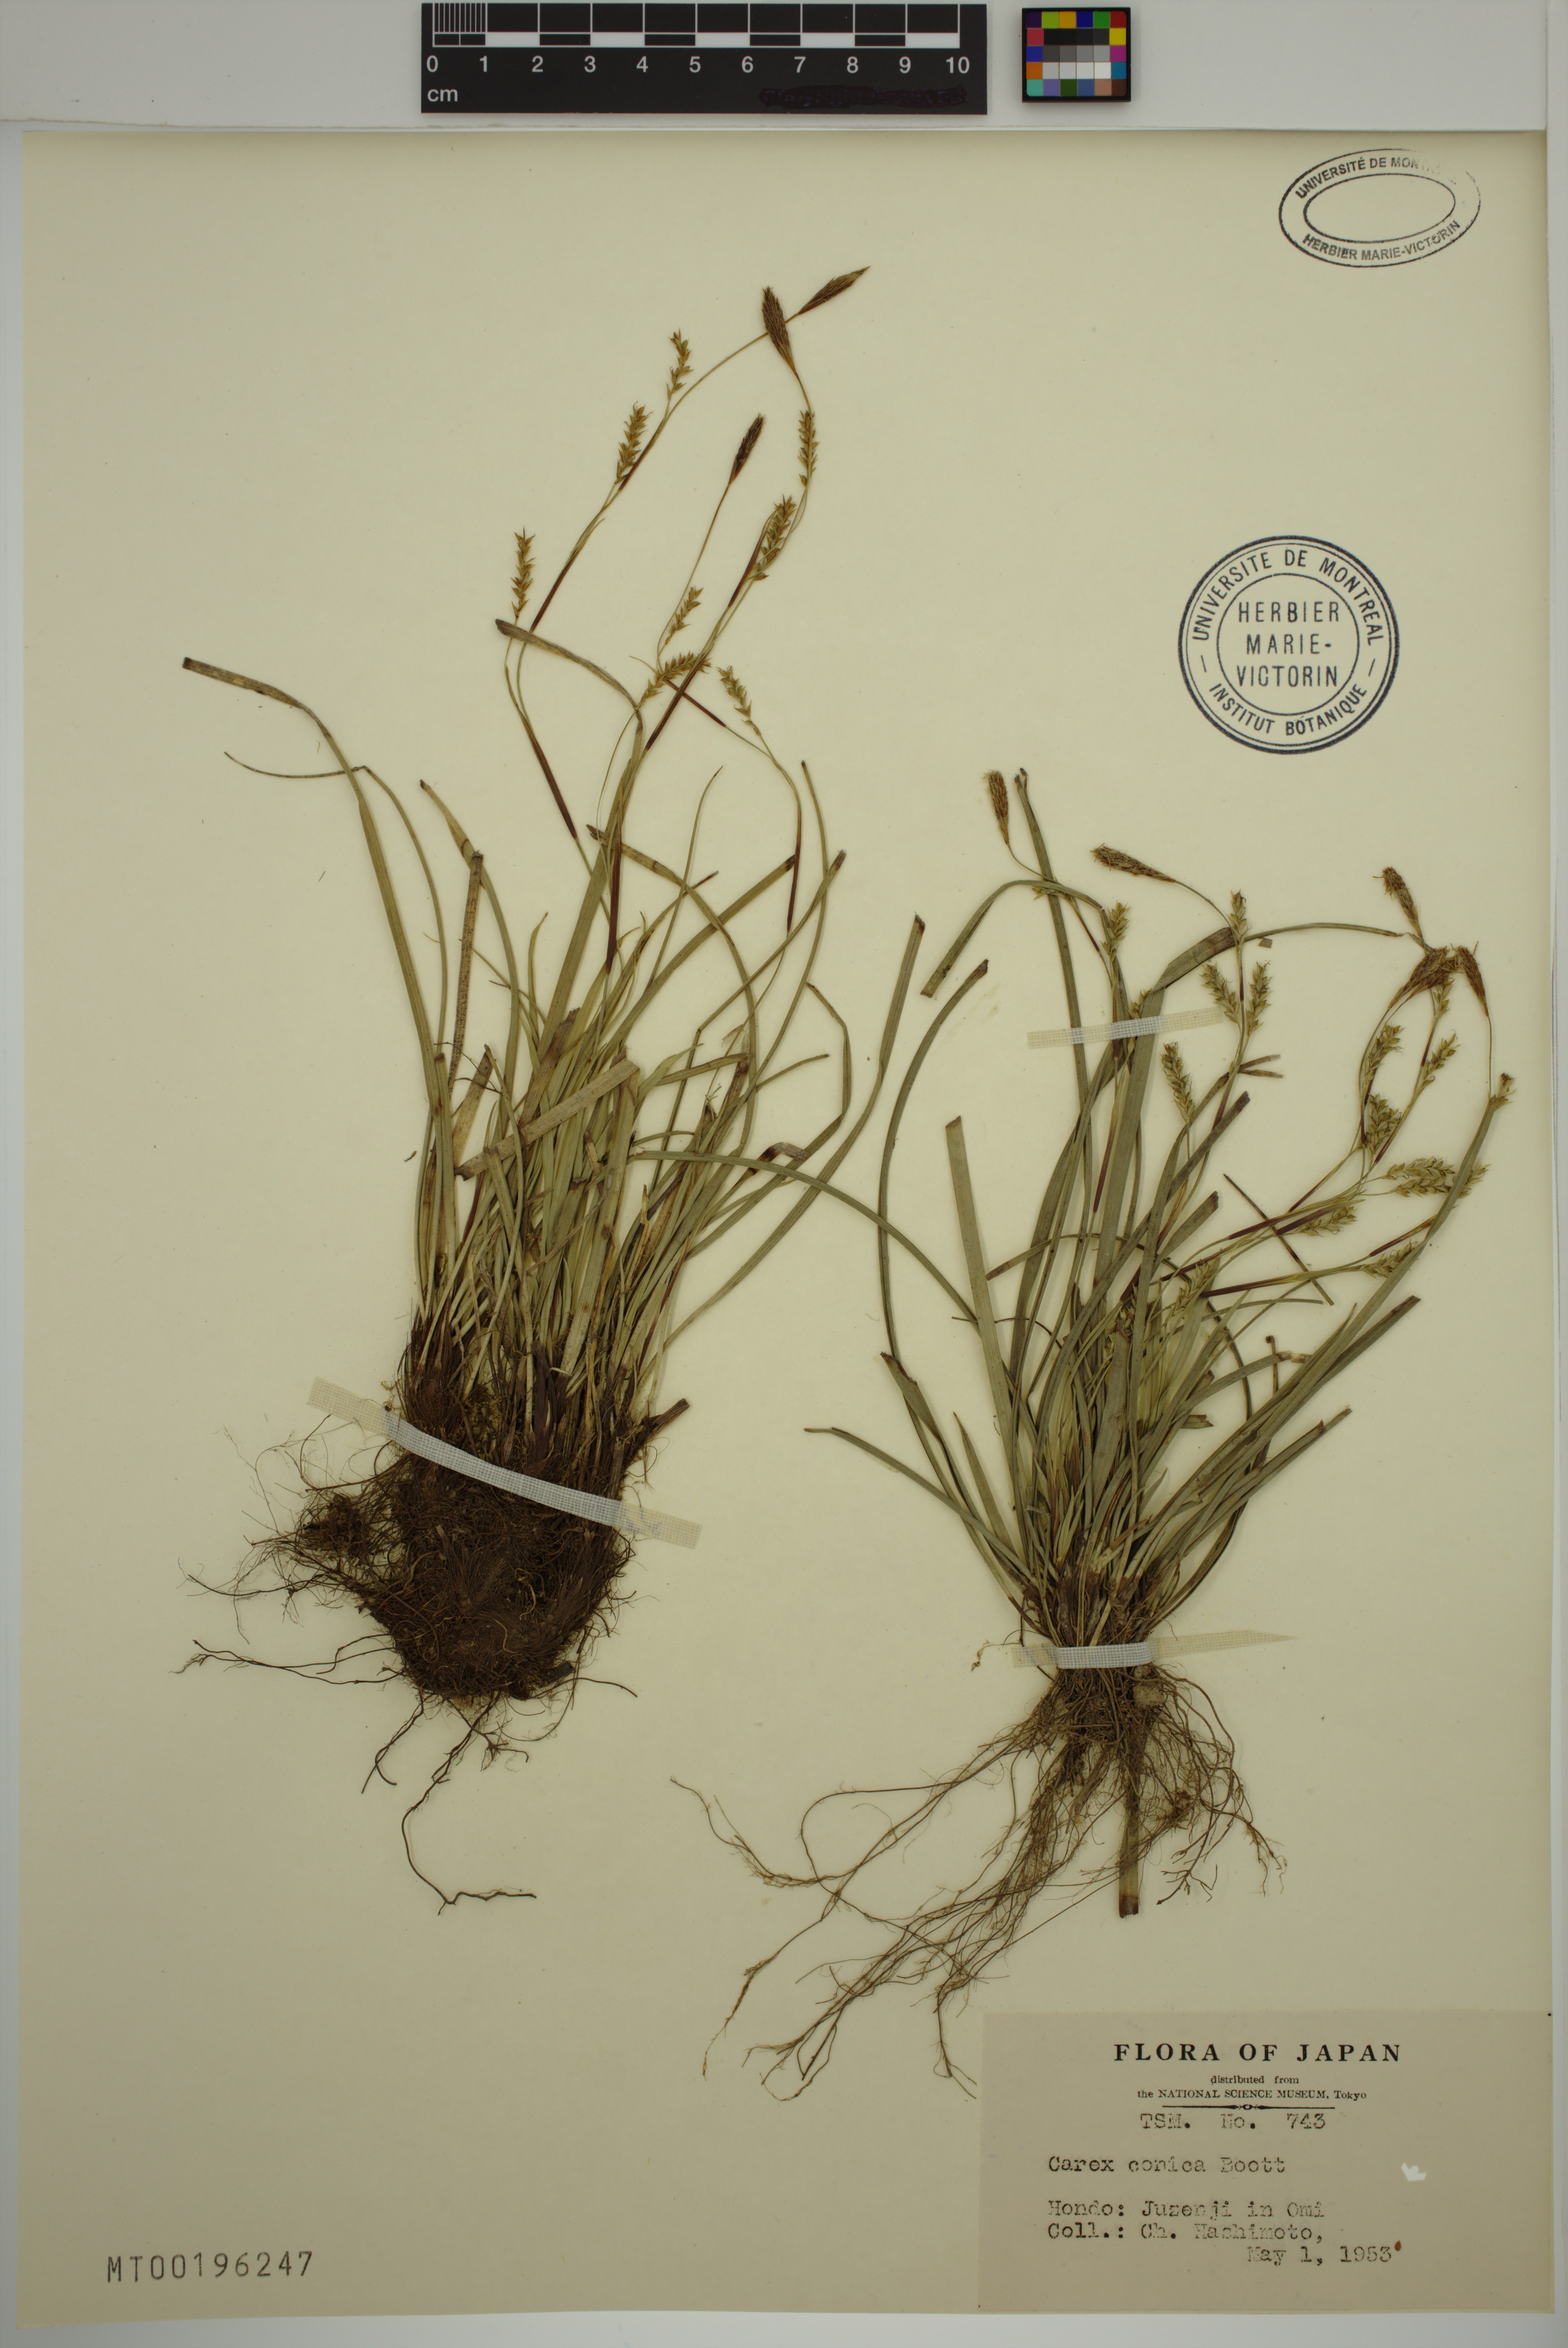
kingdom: Plantae
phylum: Tracheophyta
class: Liliopsida
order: Poales
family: Cyperaceae
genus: Carex
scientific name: Carex conica
